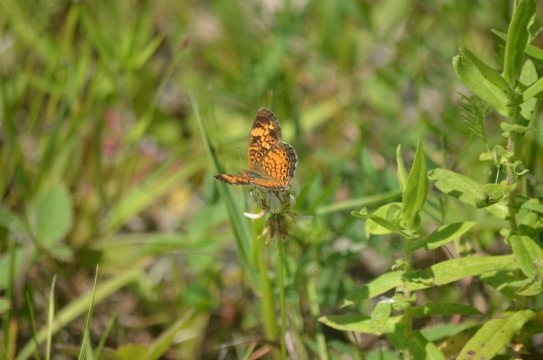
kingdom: Animalia
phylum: Arthropoda
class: Insecta
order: Lepidoptera
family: Nymphalidae
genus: Phyciodes
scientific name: Phyciodes tharos
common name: Northern Crescent
